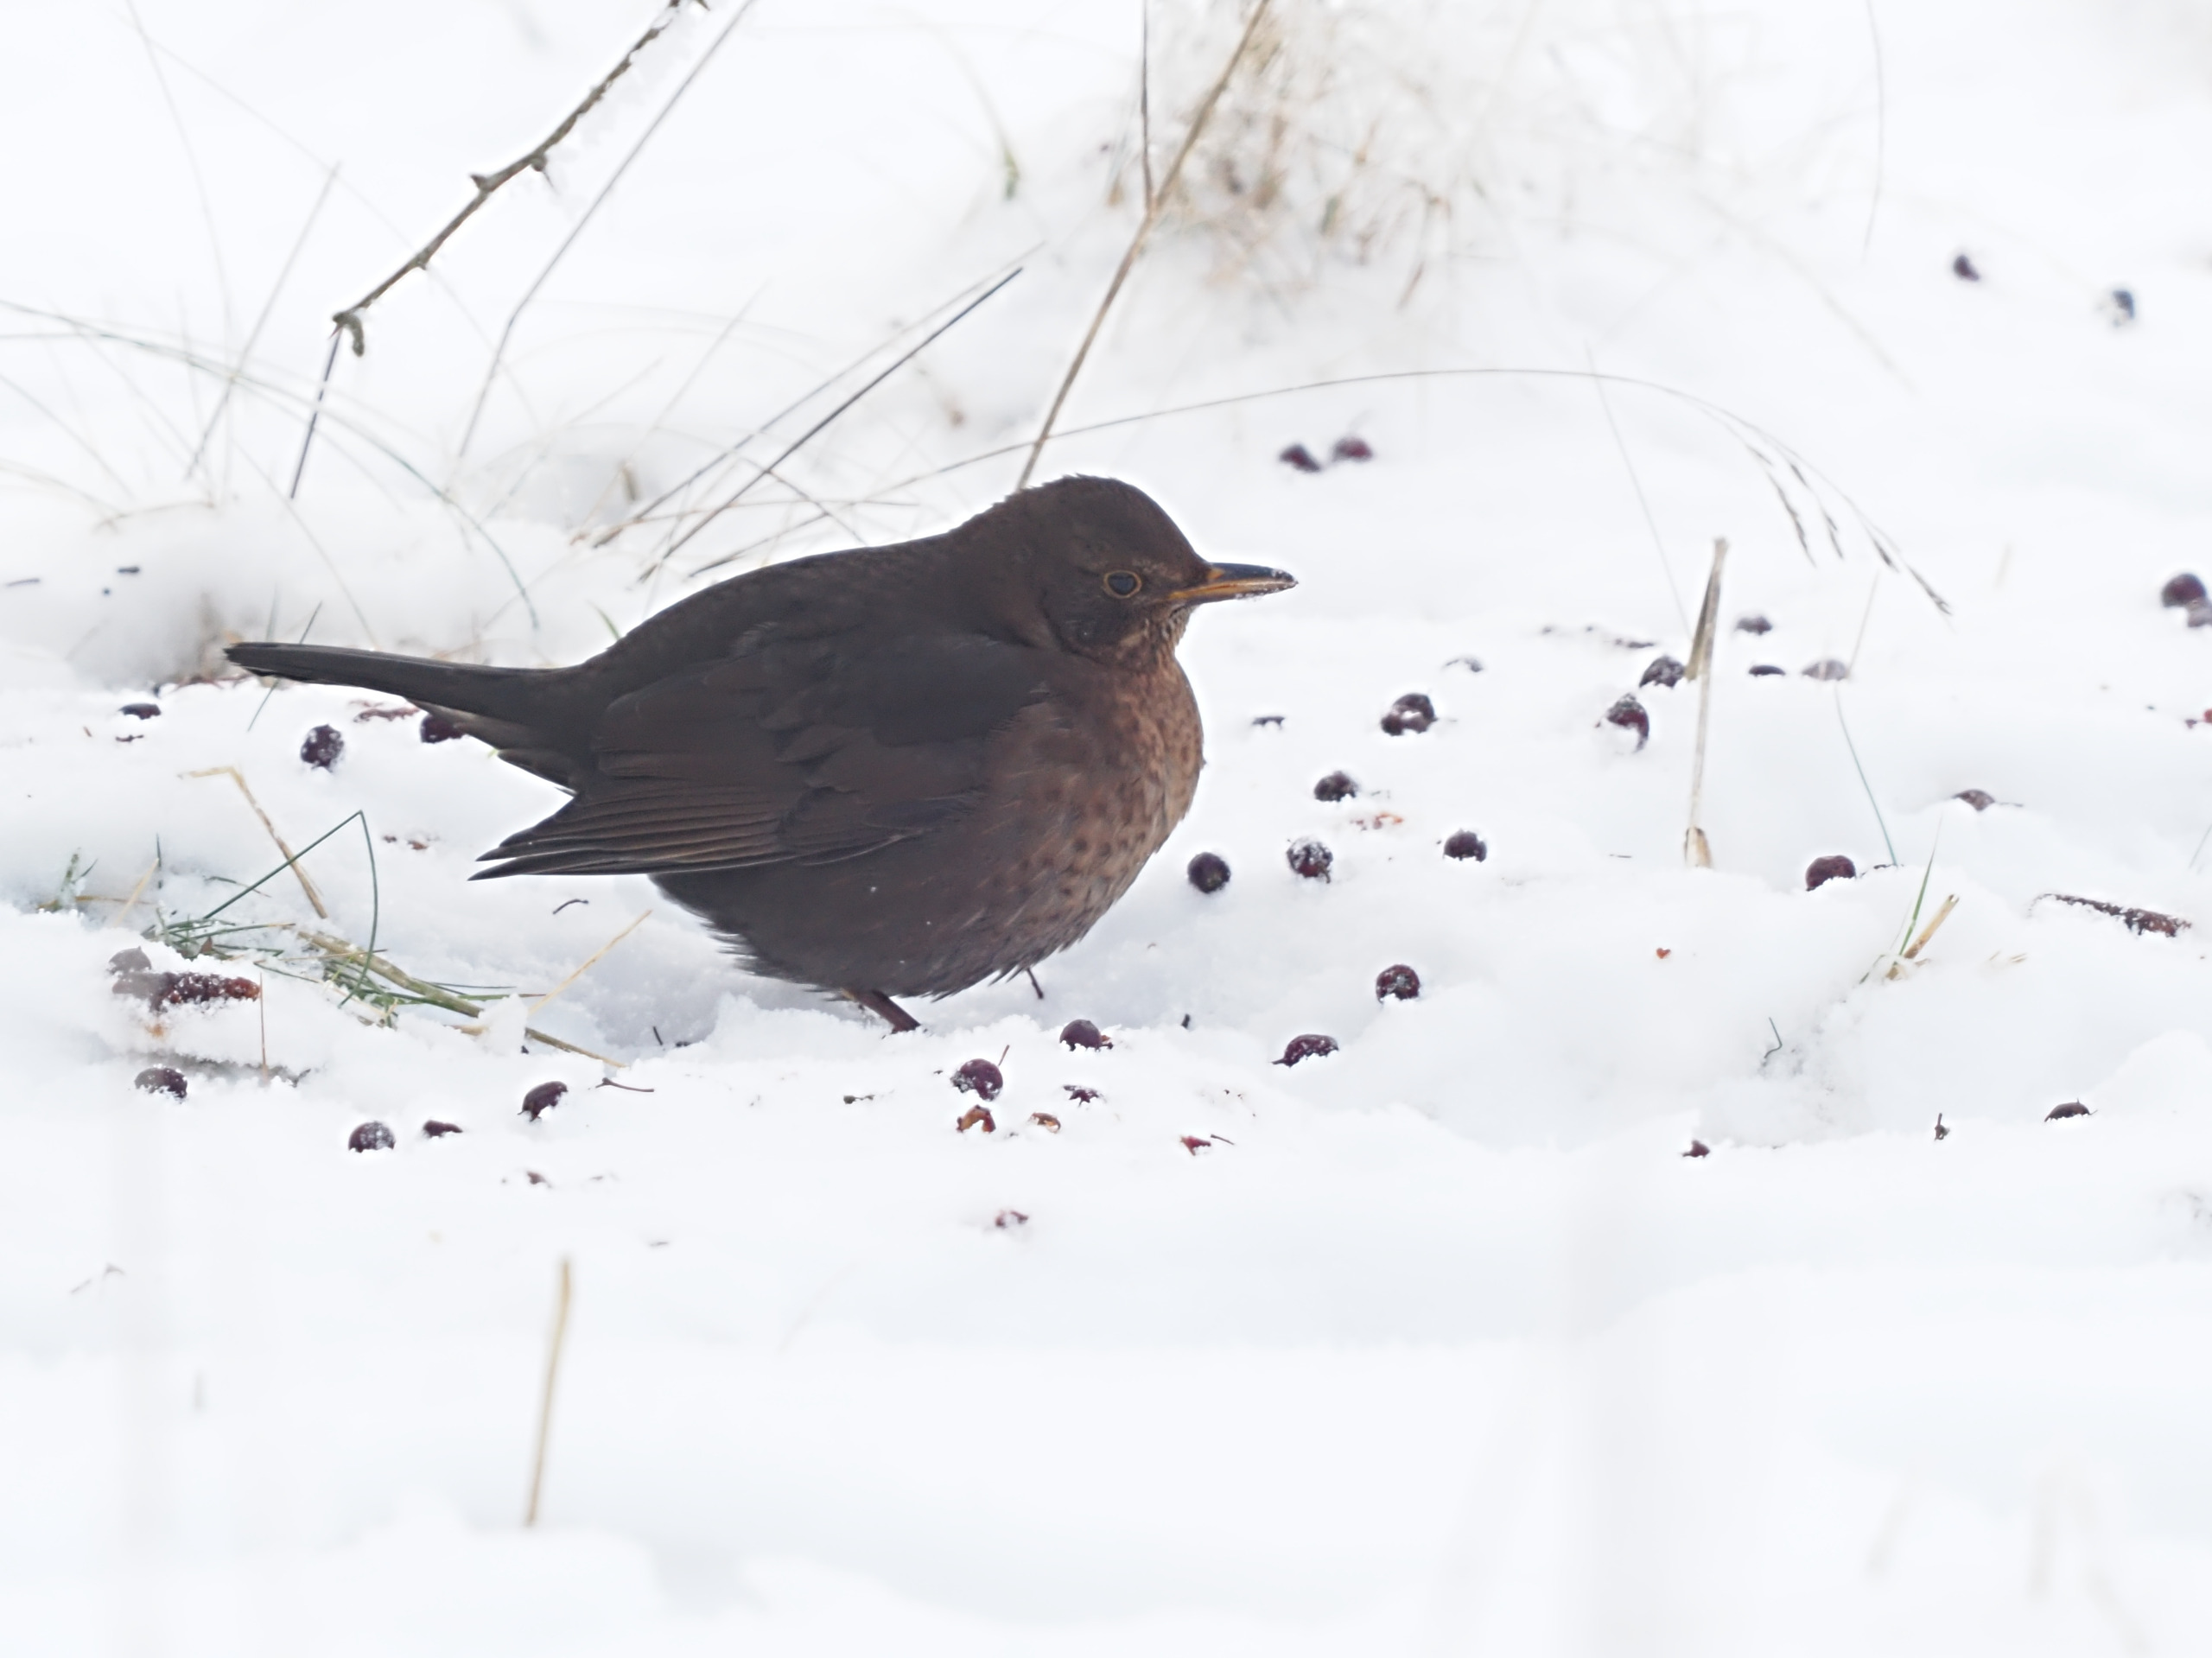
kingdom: Animalia
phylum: Chordata
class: Aves
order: Passeriformes
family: Turdidae
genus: Turdus
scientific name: Turdus merula
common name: Solsort
